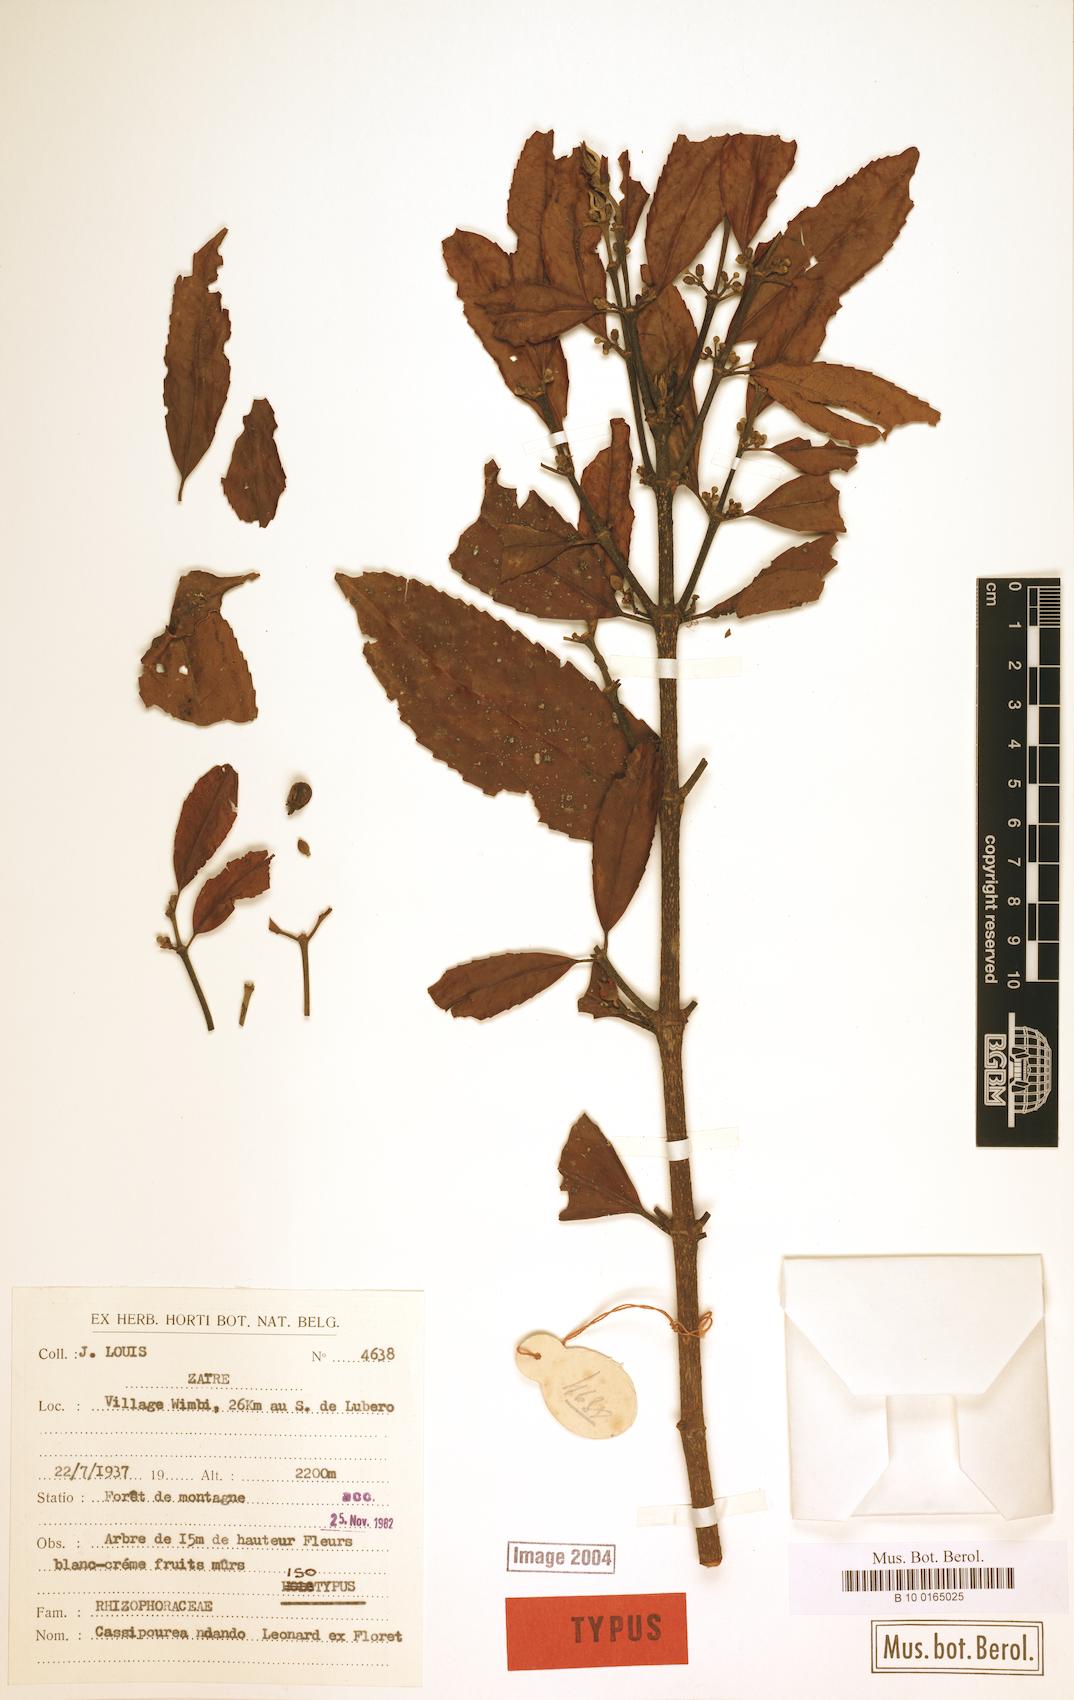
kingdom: Plantae
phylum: Tracheophyta
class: Magnoliopsida
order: Malpighiales
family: Rhizophoraceae
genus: Cassipourea
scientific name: Cassipourea ndando
